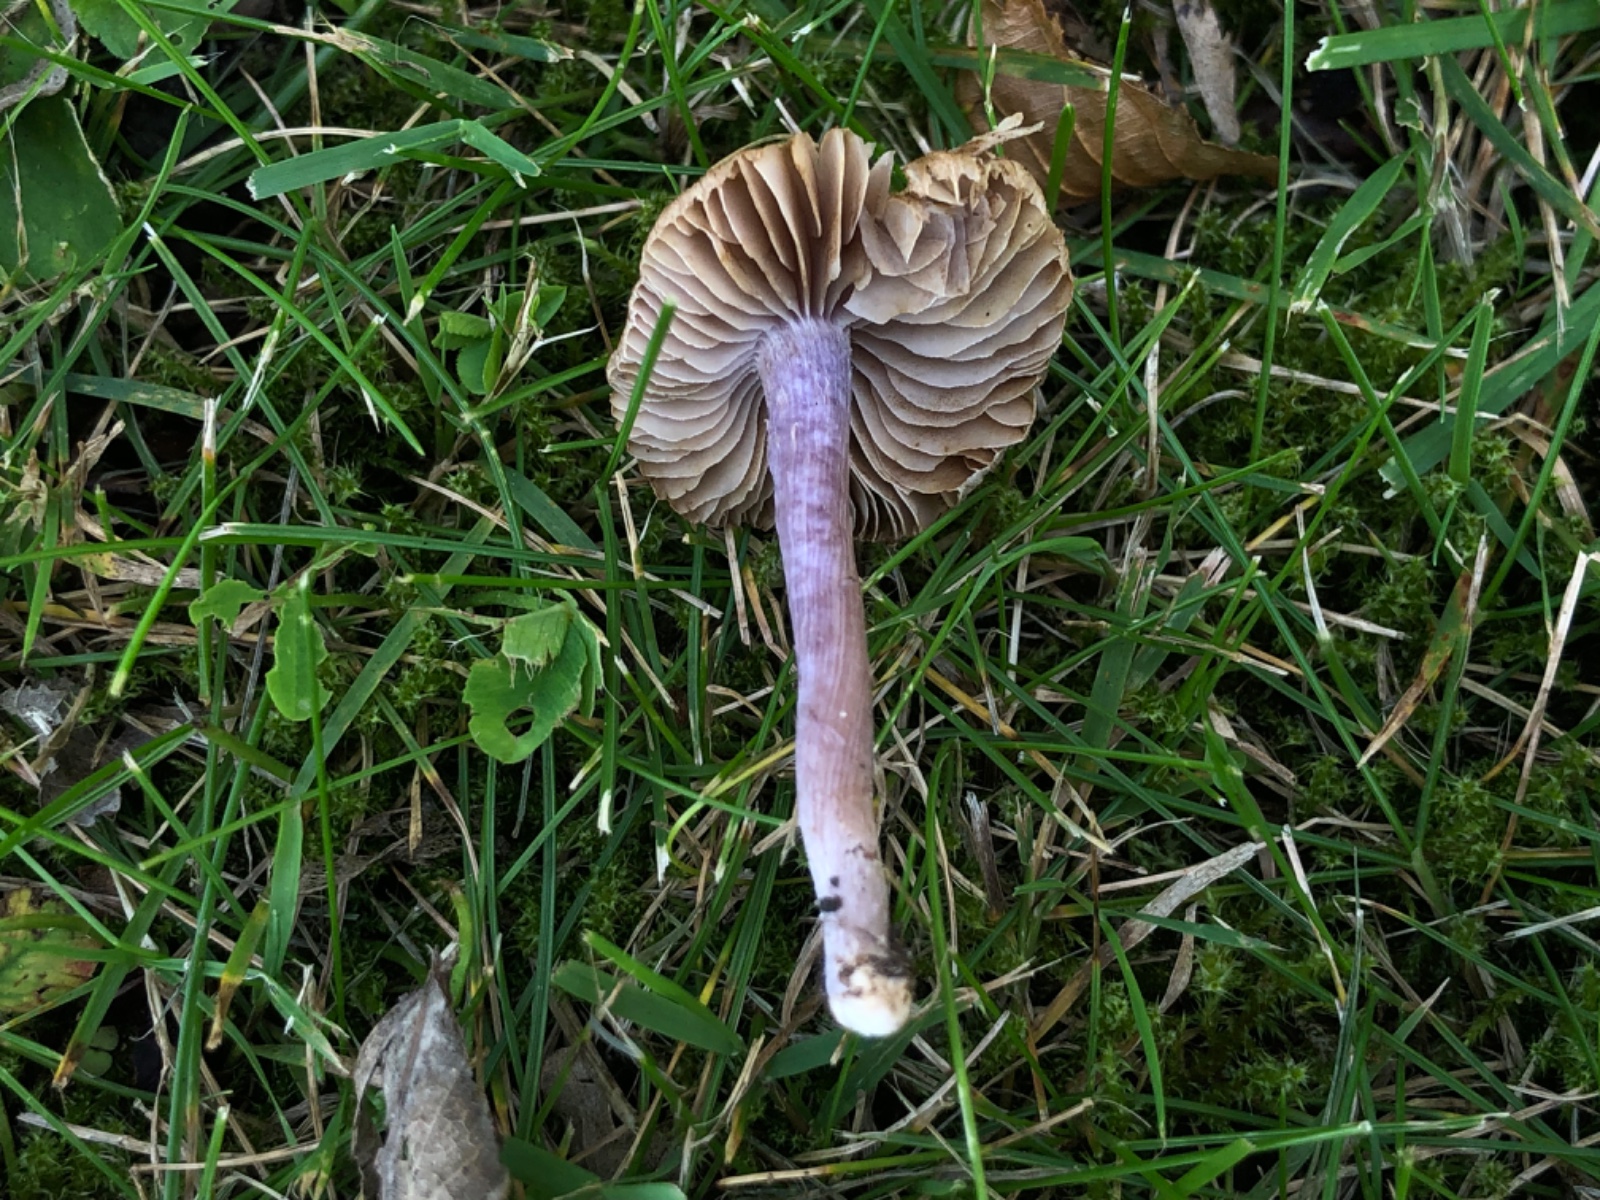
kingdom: Fungi
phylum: Basidiomycota
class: Agaricomycetes
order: Agaricales
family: Inocybaceae
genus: Inocybe
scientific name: Inocybe
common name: trævlhat
